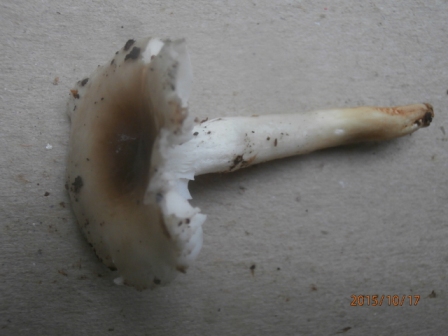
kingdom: Fungi
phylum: Basidiomycota
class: Agaricomycetes
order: Agaricales
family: Hygrophoraceae
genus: Hygrophorus
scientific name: Hygrophorus mesotephrus
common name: askegrå sneglehat
